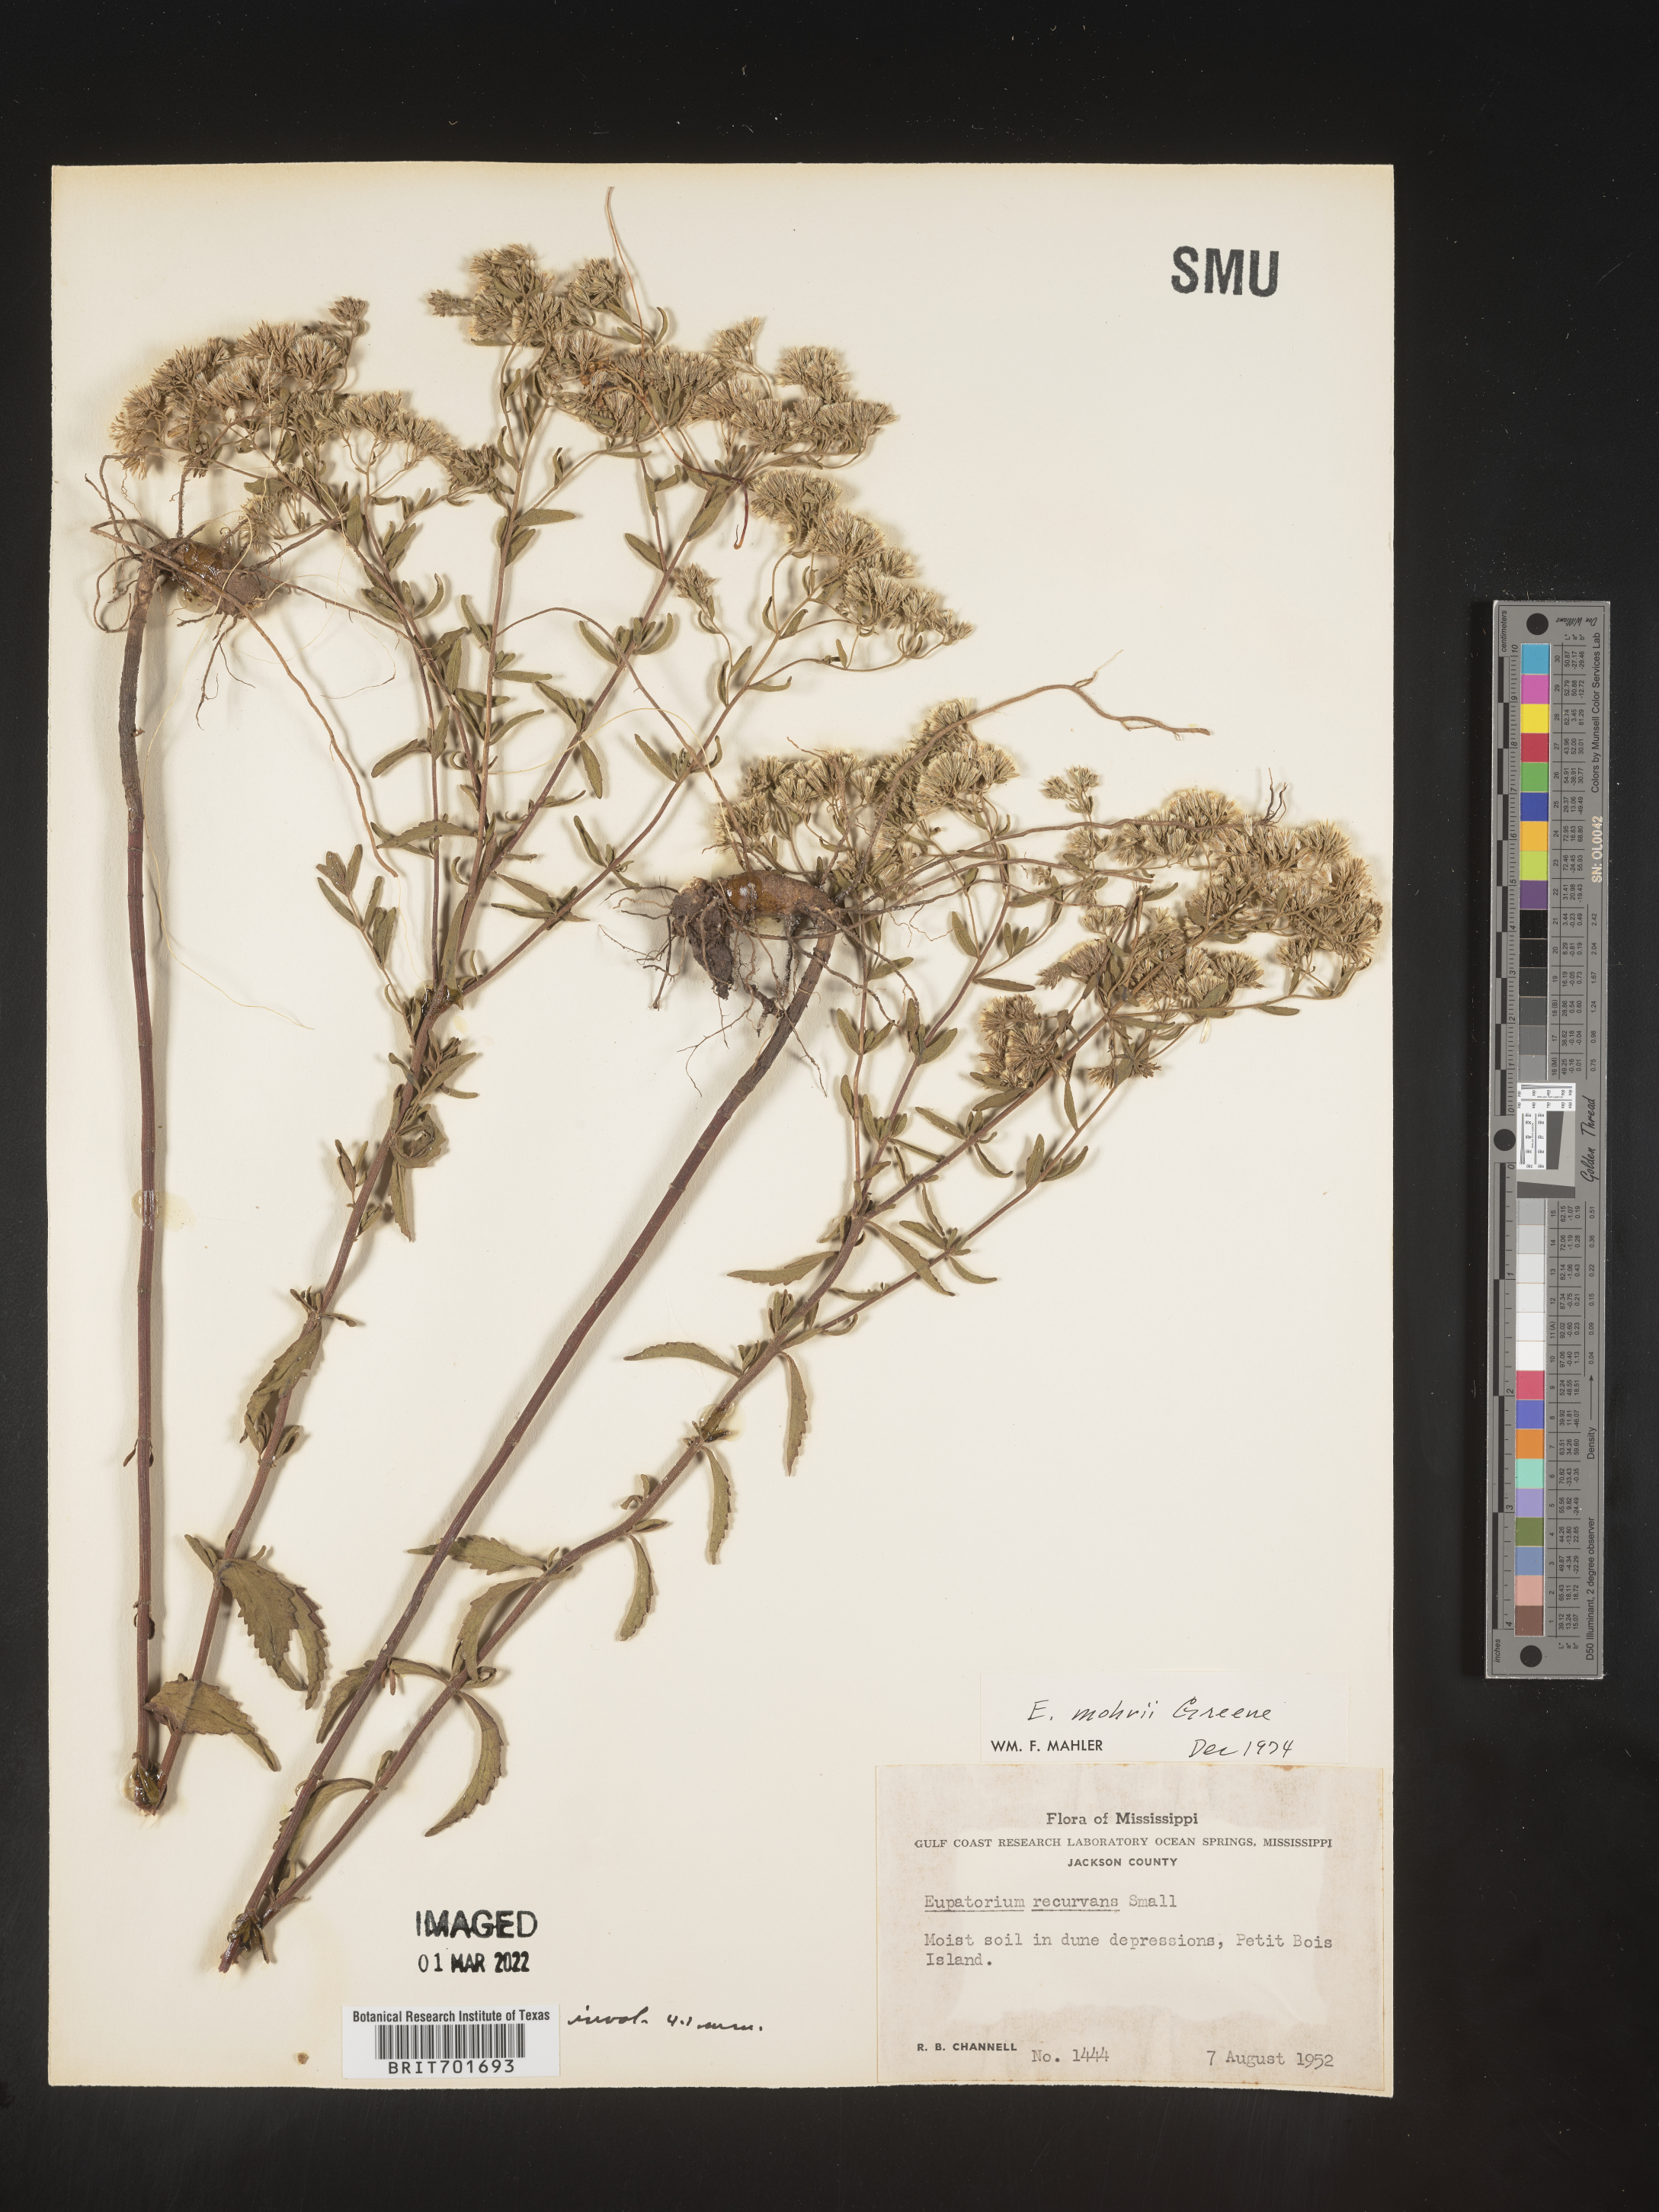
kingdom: Plantae
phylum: Tracheophyta
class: Magnoliopsida
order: Asterales
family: Asteraceae
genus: Eupatorium
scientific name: Eupatorium mohrii
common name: Mohr's thoroughwort
